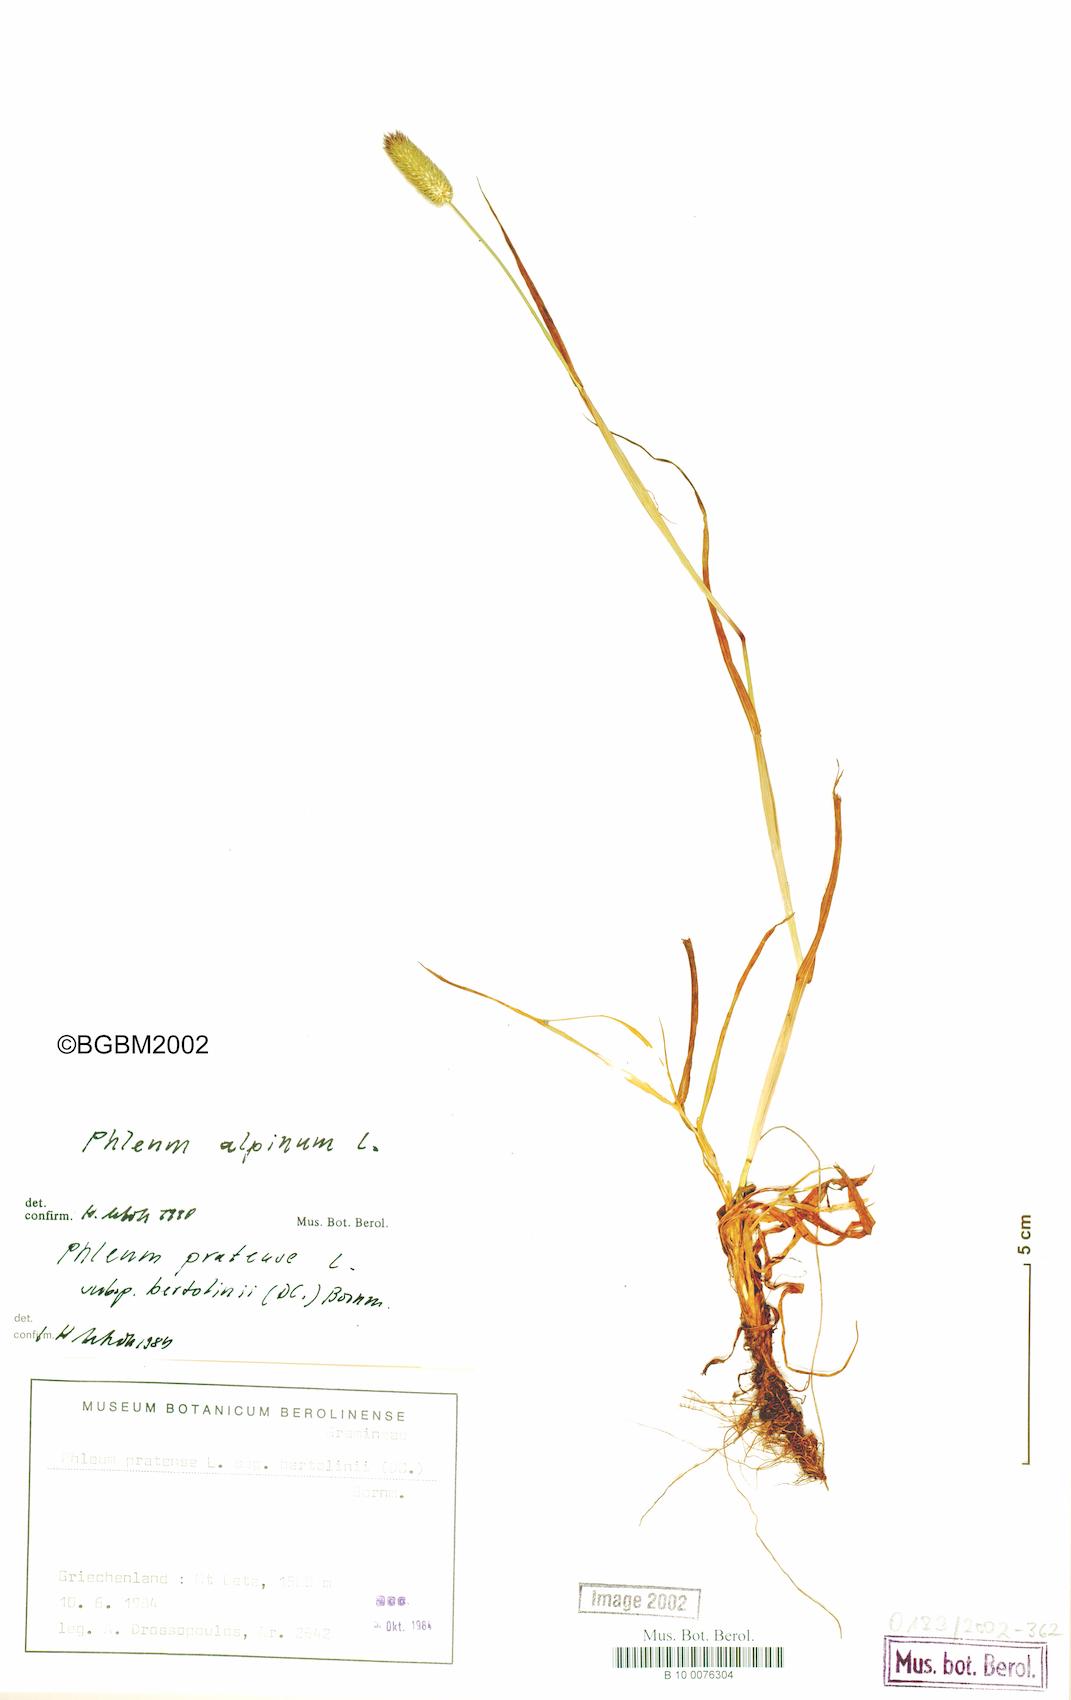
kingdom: Plantae
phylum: Tracheophyta
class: Liliopsida
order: Poales
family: Poaceae
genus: Phleum
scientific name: Phleum alpinum
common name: Alpine cat's-tail
